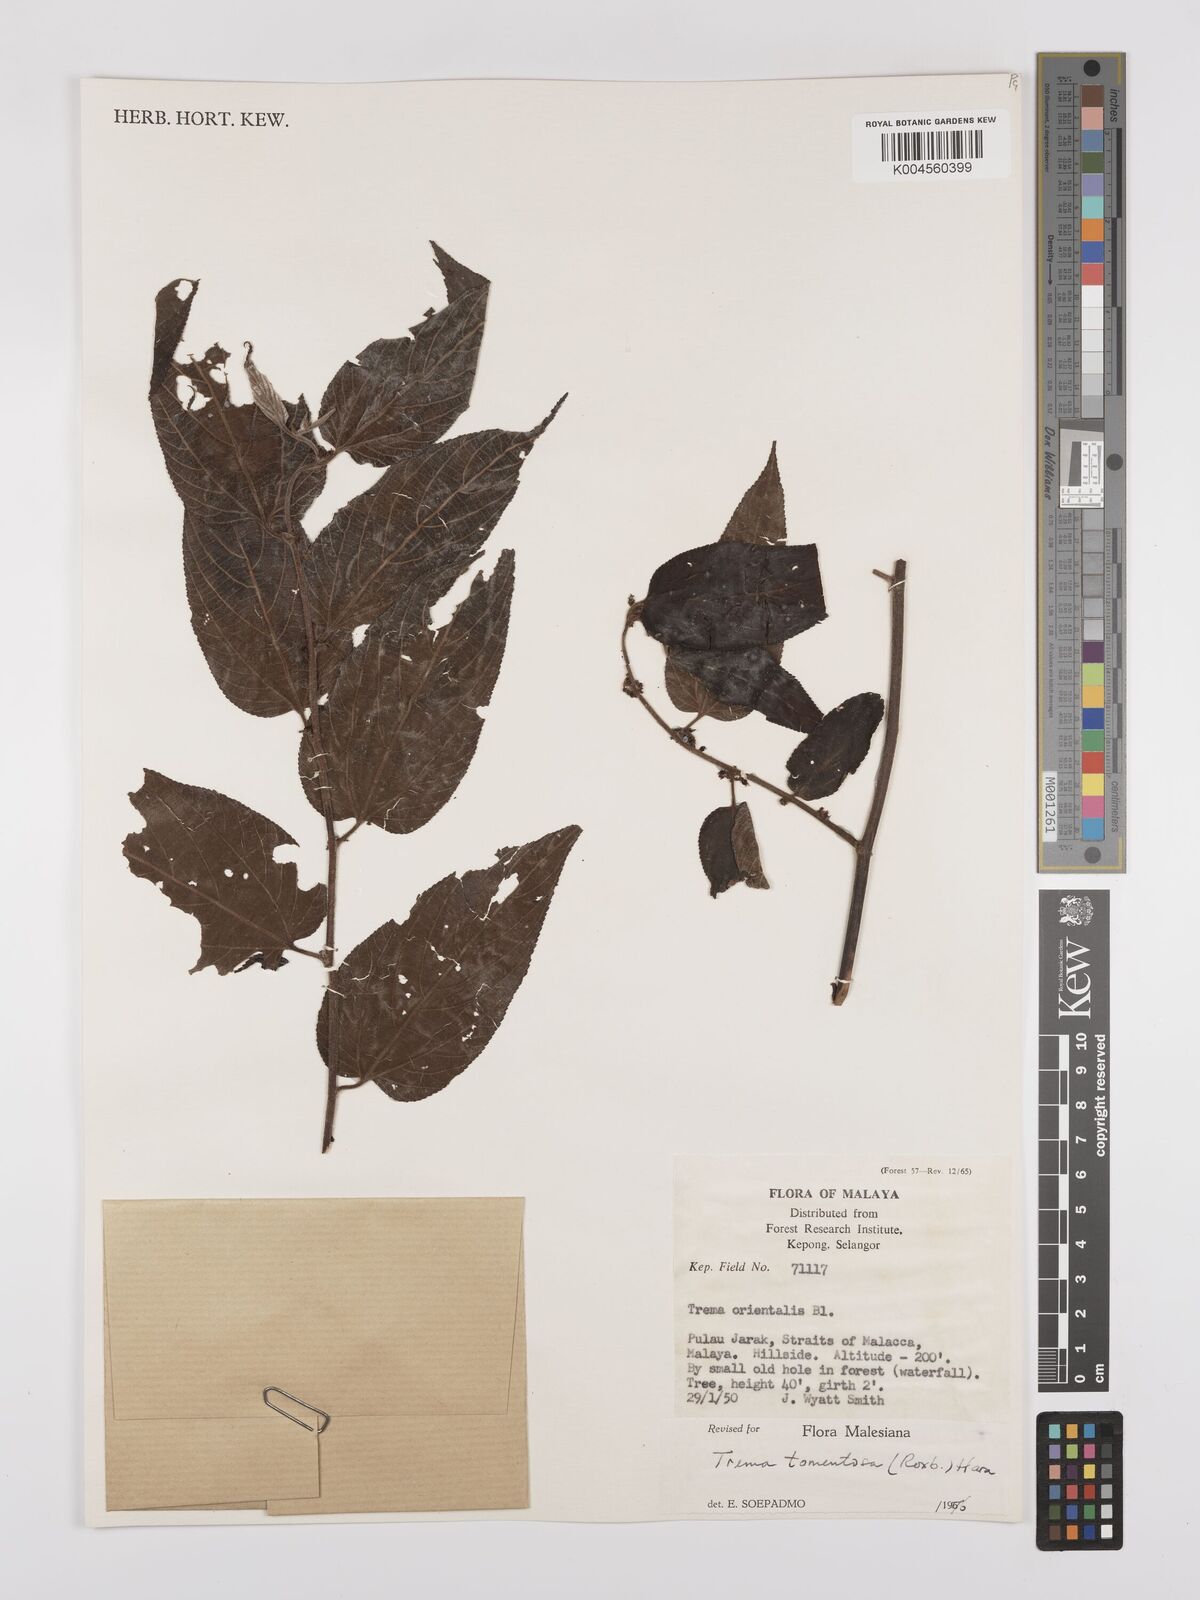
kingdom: Plantae
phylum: Tracheophyta
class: Magnoliopsida
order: Rosales
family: Cannabaceae
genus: Trema
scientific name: Trema tomentosum
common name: Peach-leaf-poisonbush
